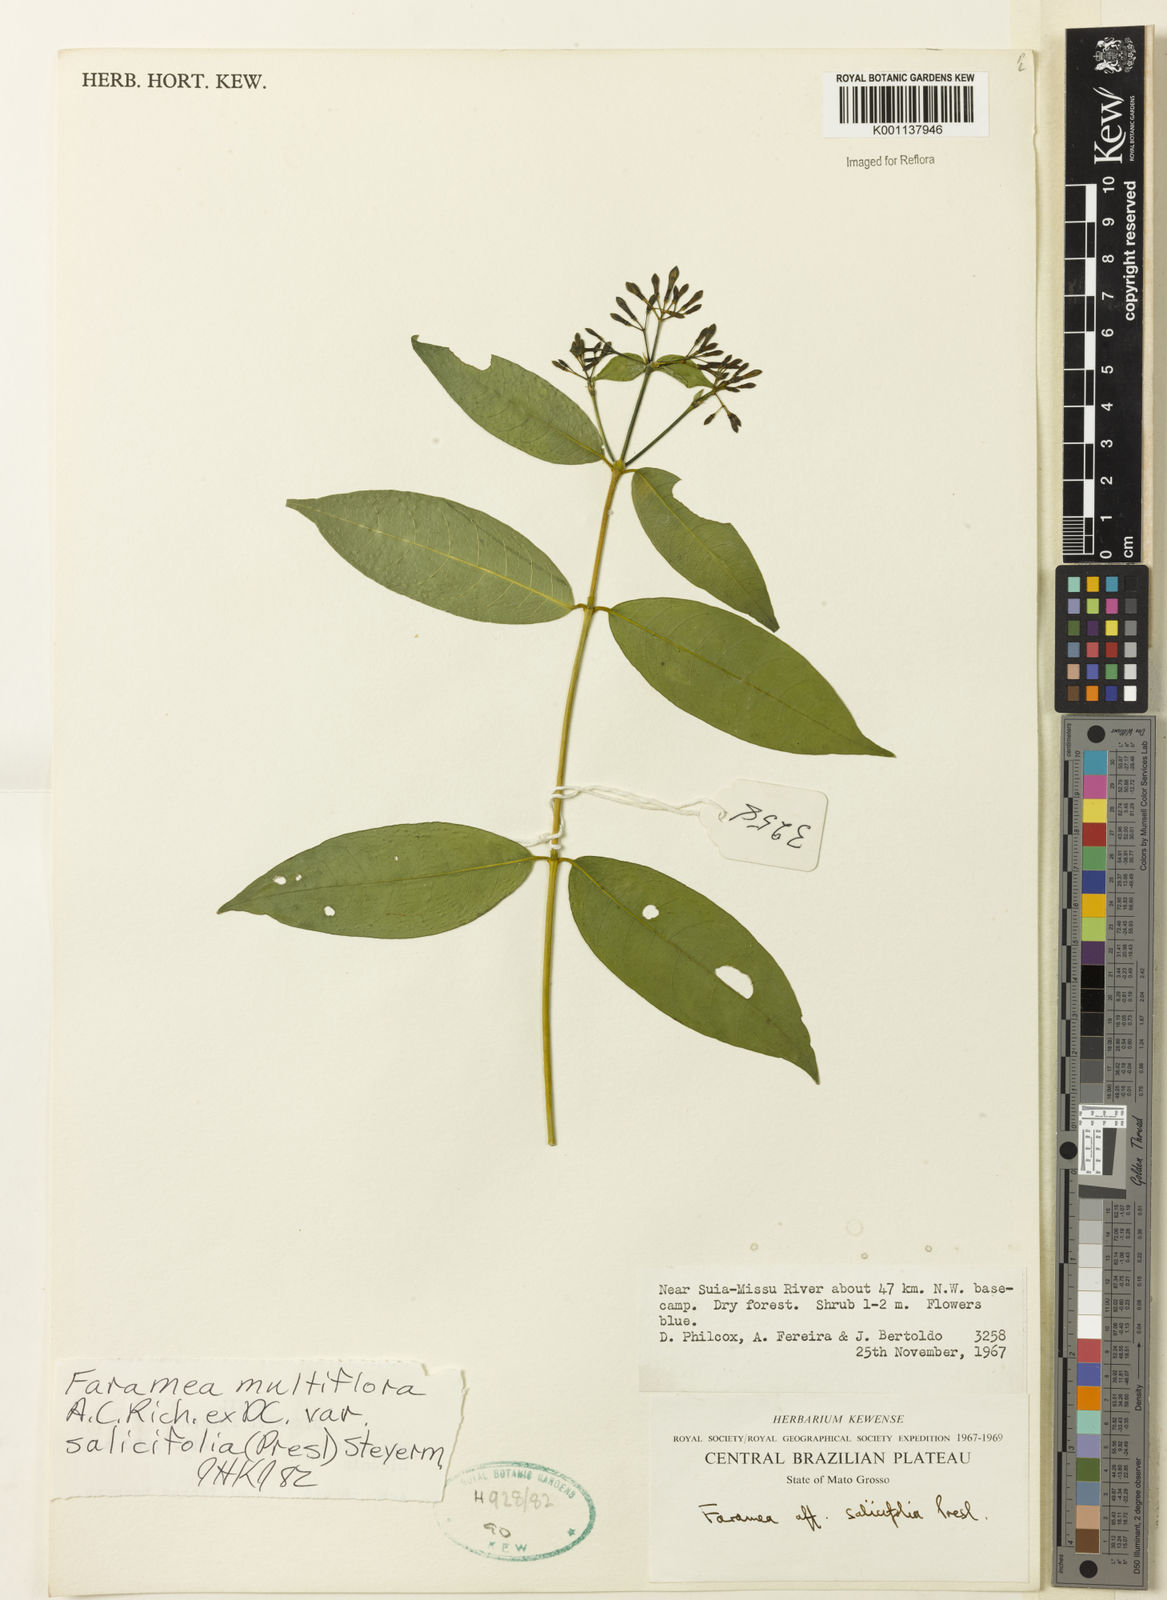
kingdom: Plantae
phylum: Tracheophyta
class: Magnoliopsida
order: Gentianales
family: Rubiaceae
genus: Faramea
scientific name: Faramea multiflora
